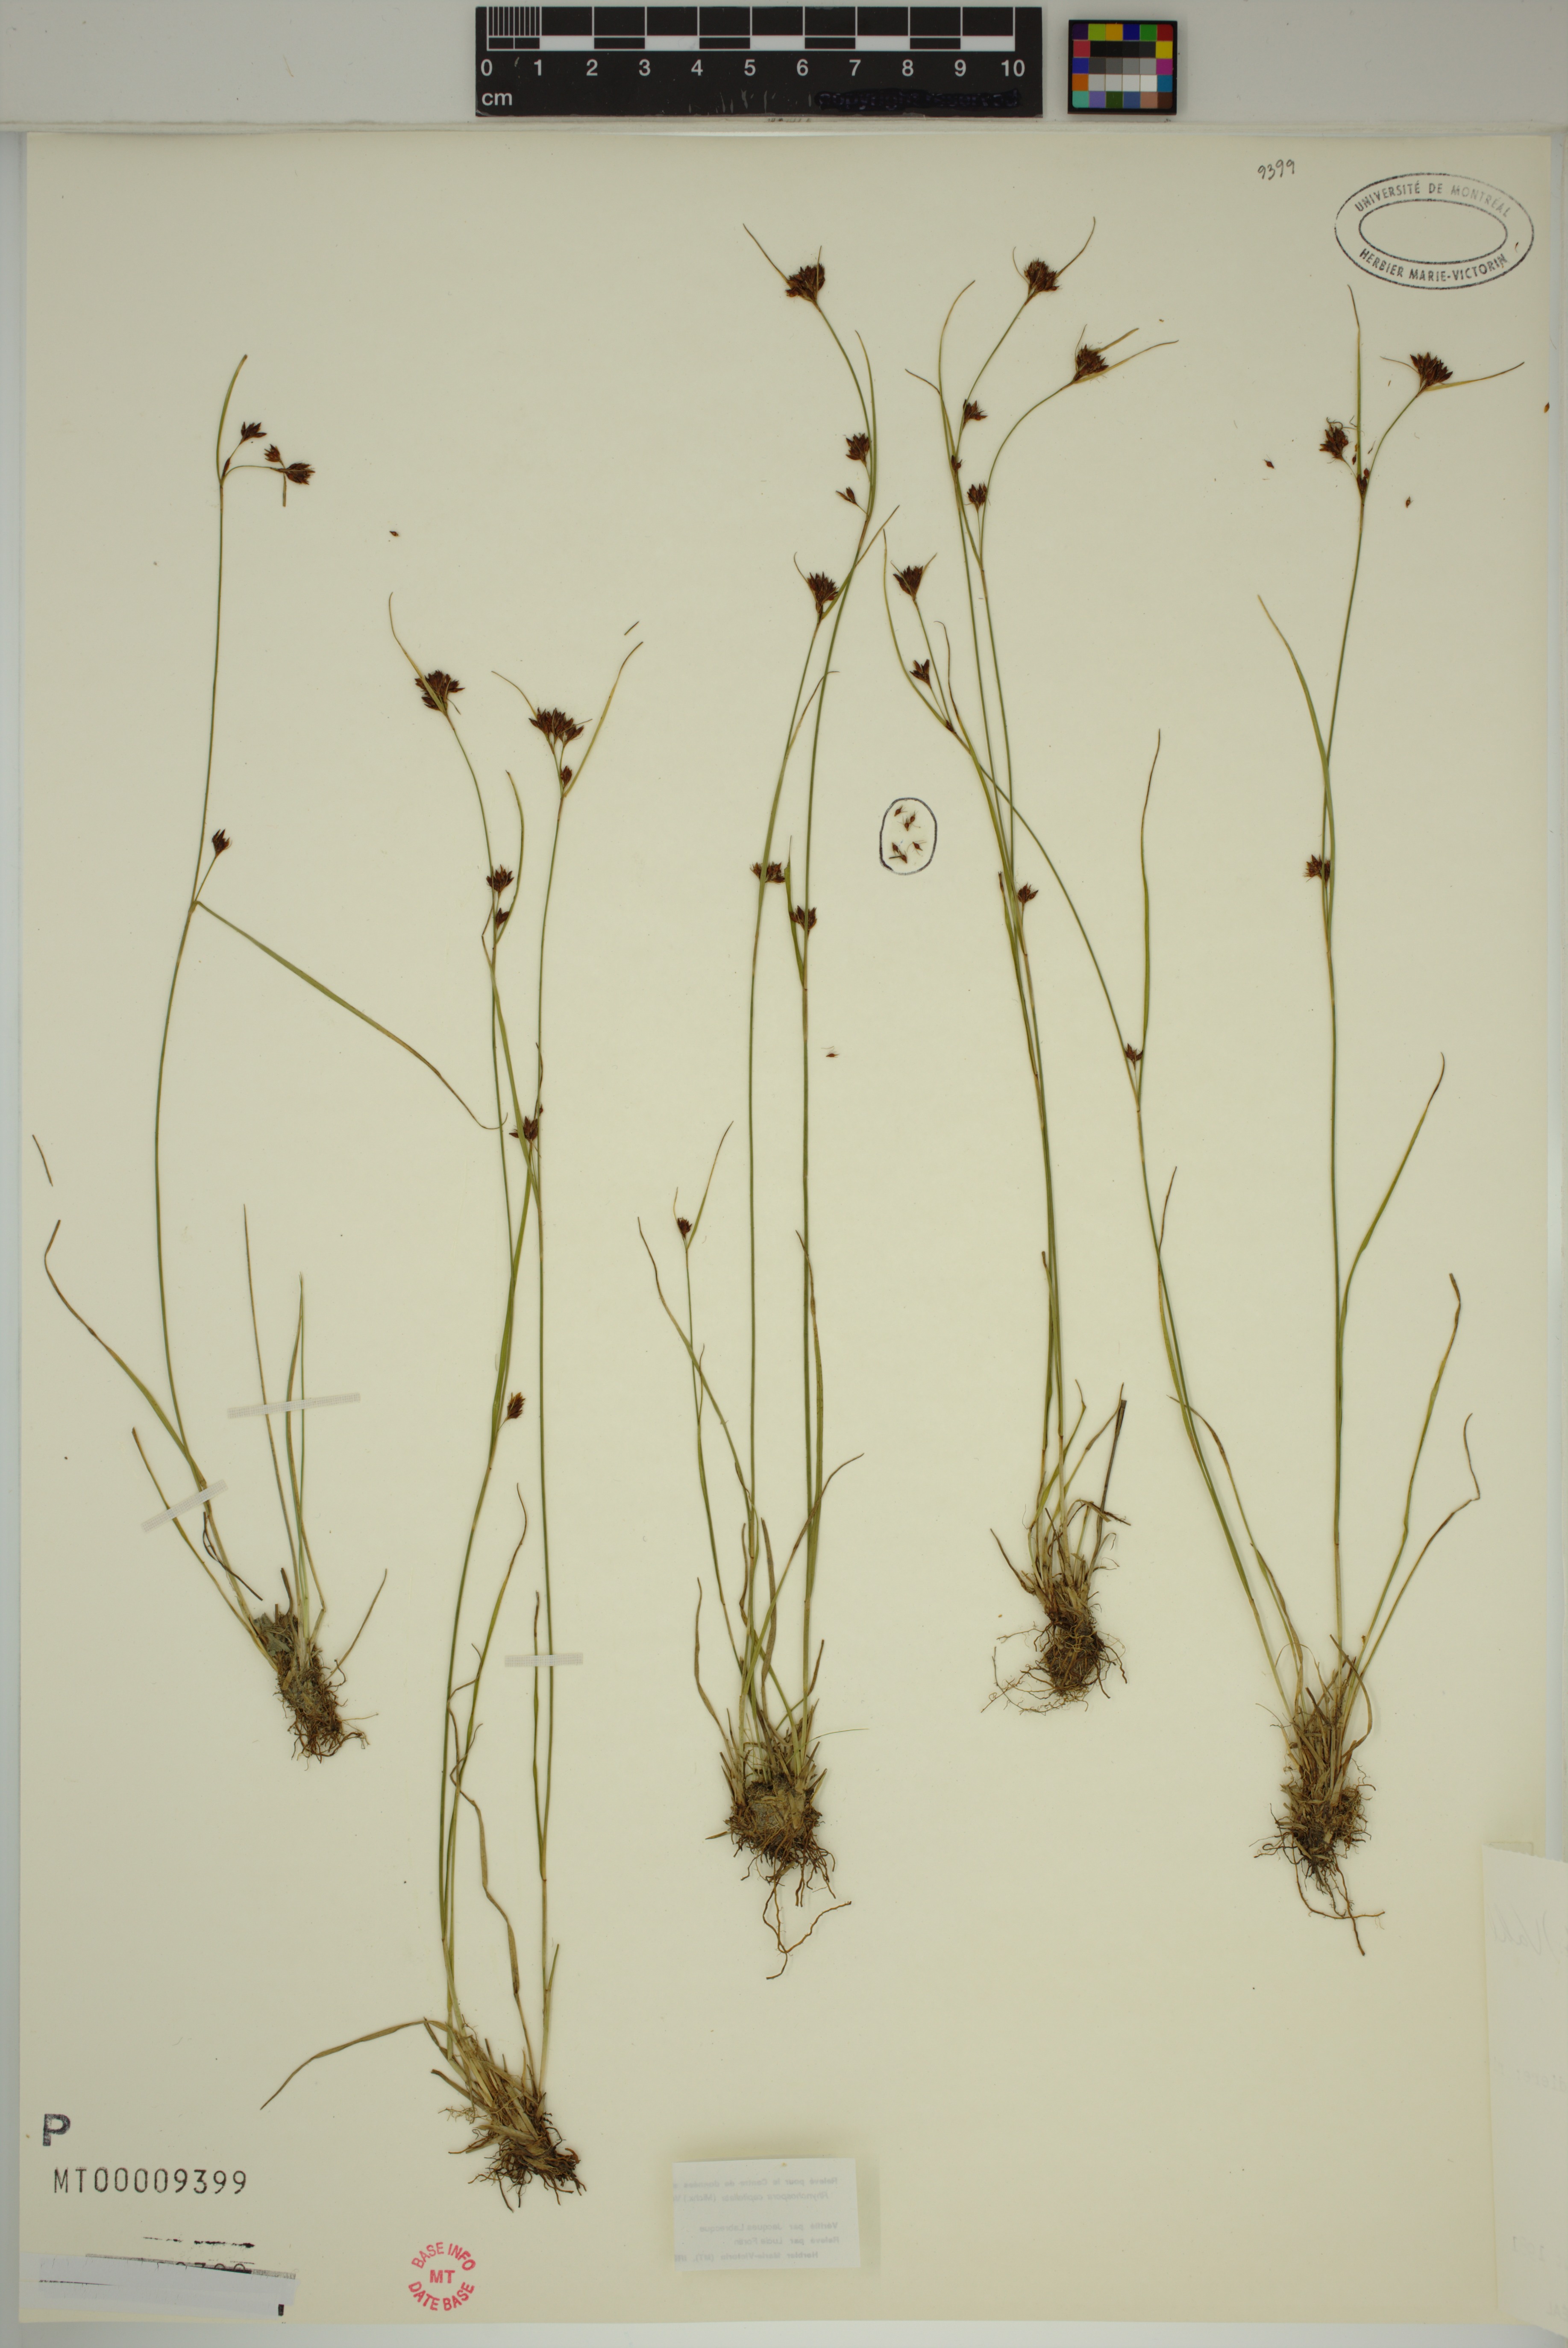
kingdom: Plantae
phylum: Tracheophyta
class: Liliopsida
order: Poales
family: Cyperaceae
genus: Rhynchospora
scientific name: Rhynchospora capitellata
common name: Brownish beaksedge
